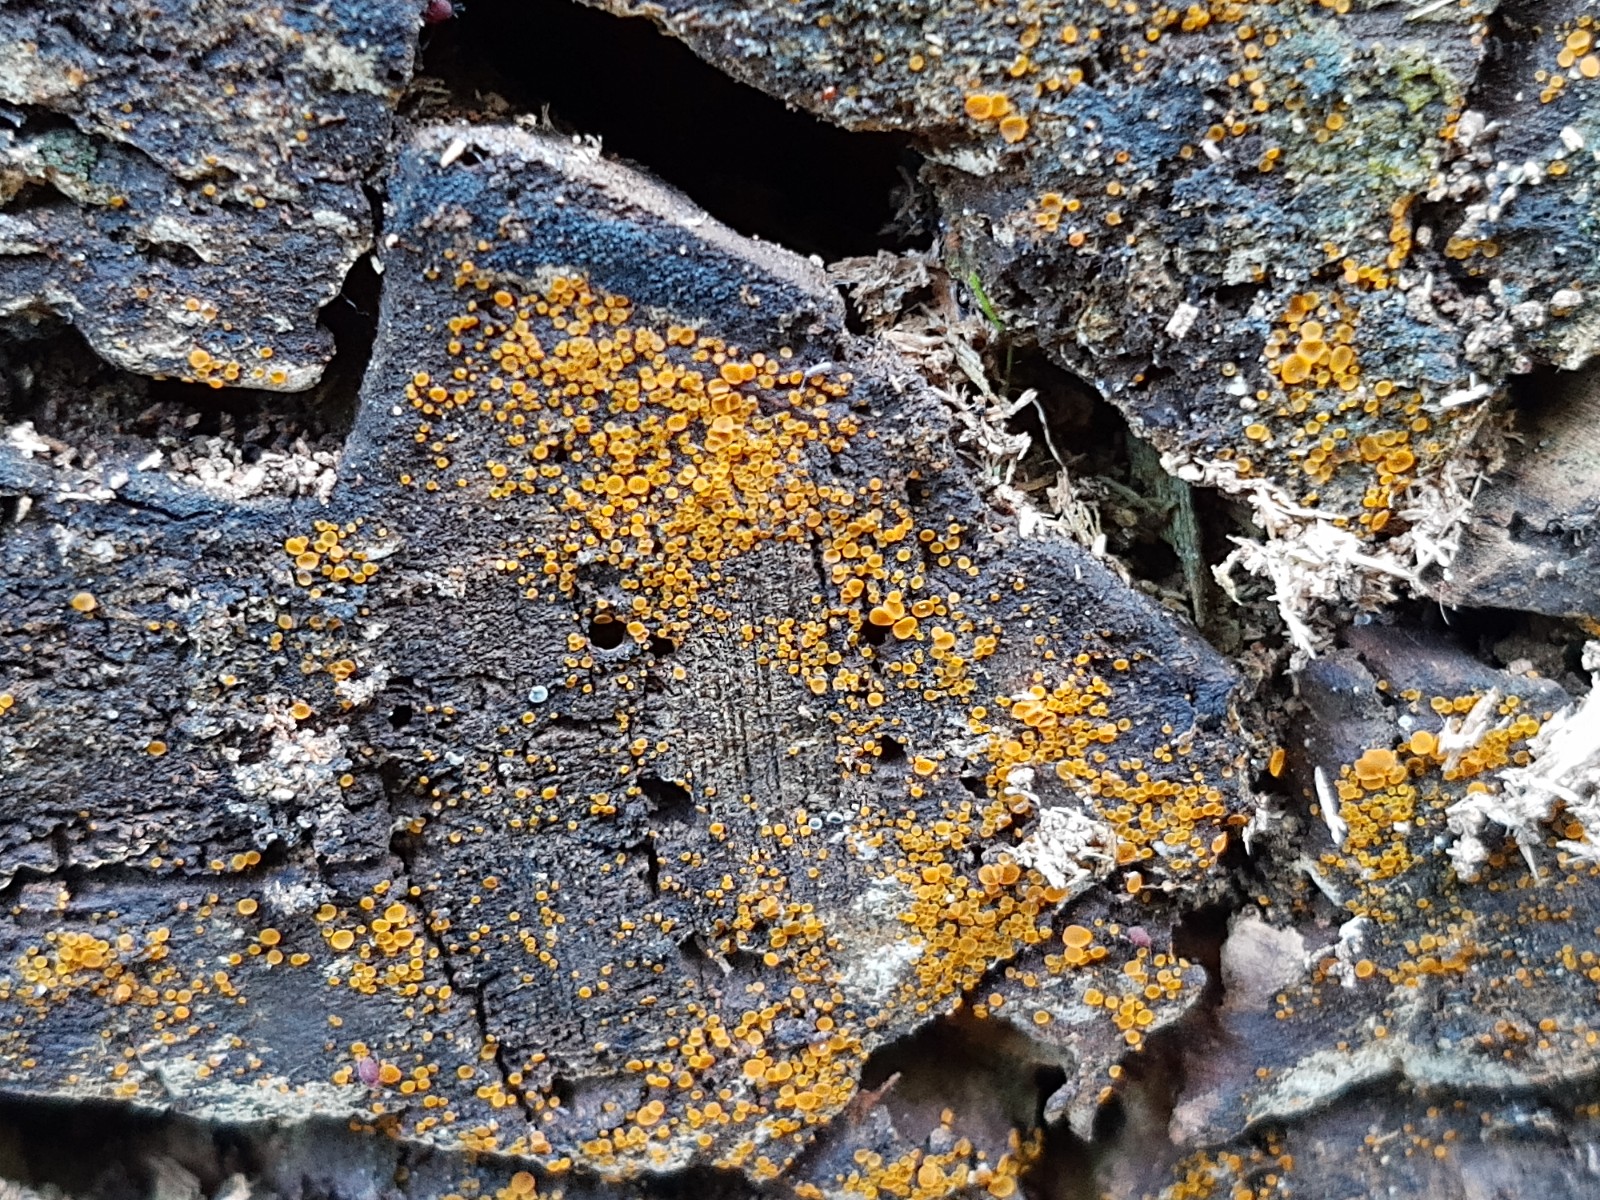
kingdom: Fungi
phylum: Ascomycota
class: Orbiliomycetes
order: Orbiliales
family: Orbiliaceae
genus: Orbilia
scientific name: Orbilia xanthostigma
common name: krumsporet voksskive
